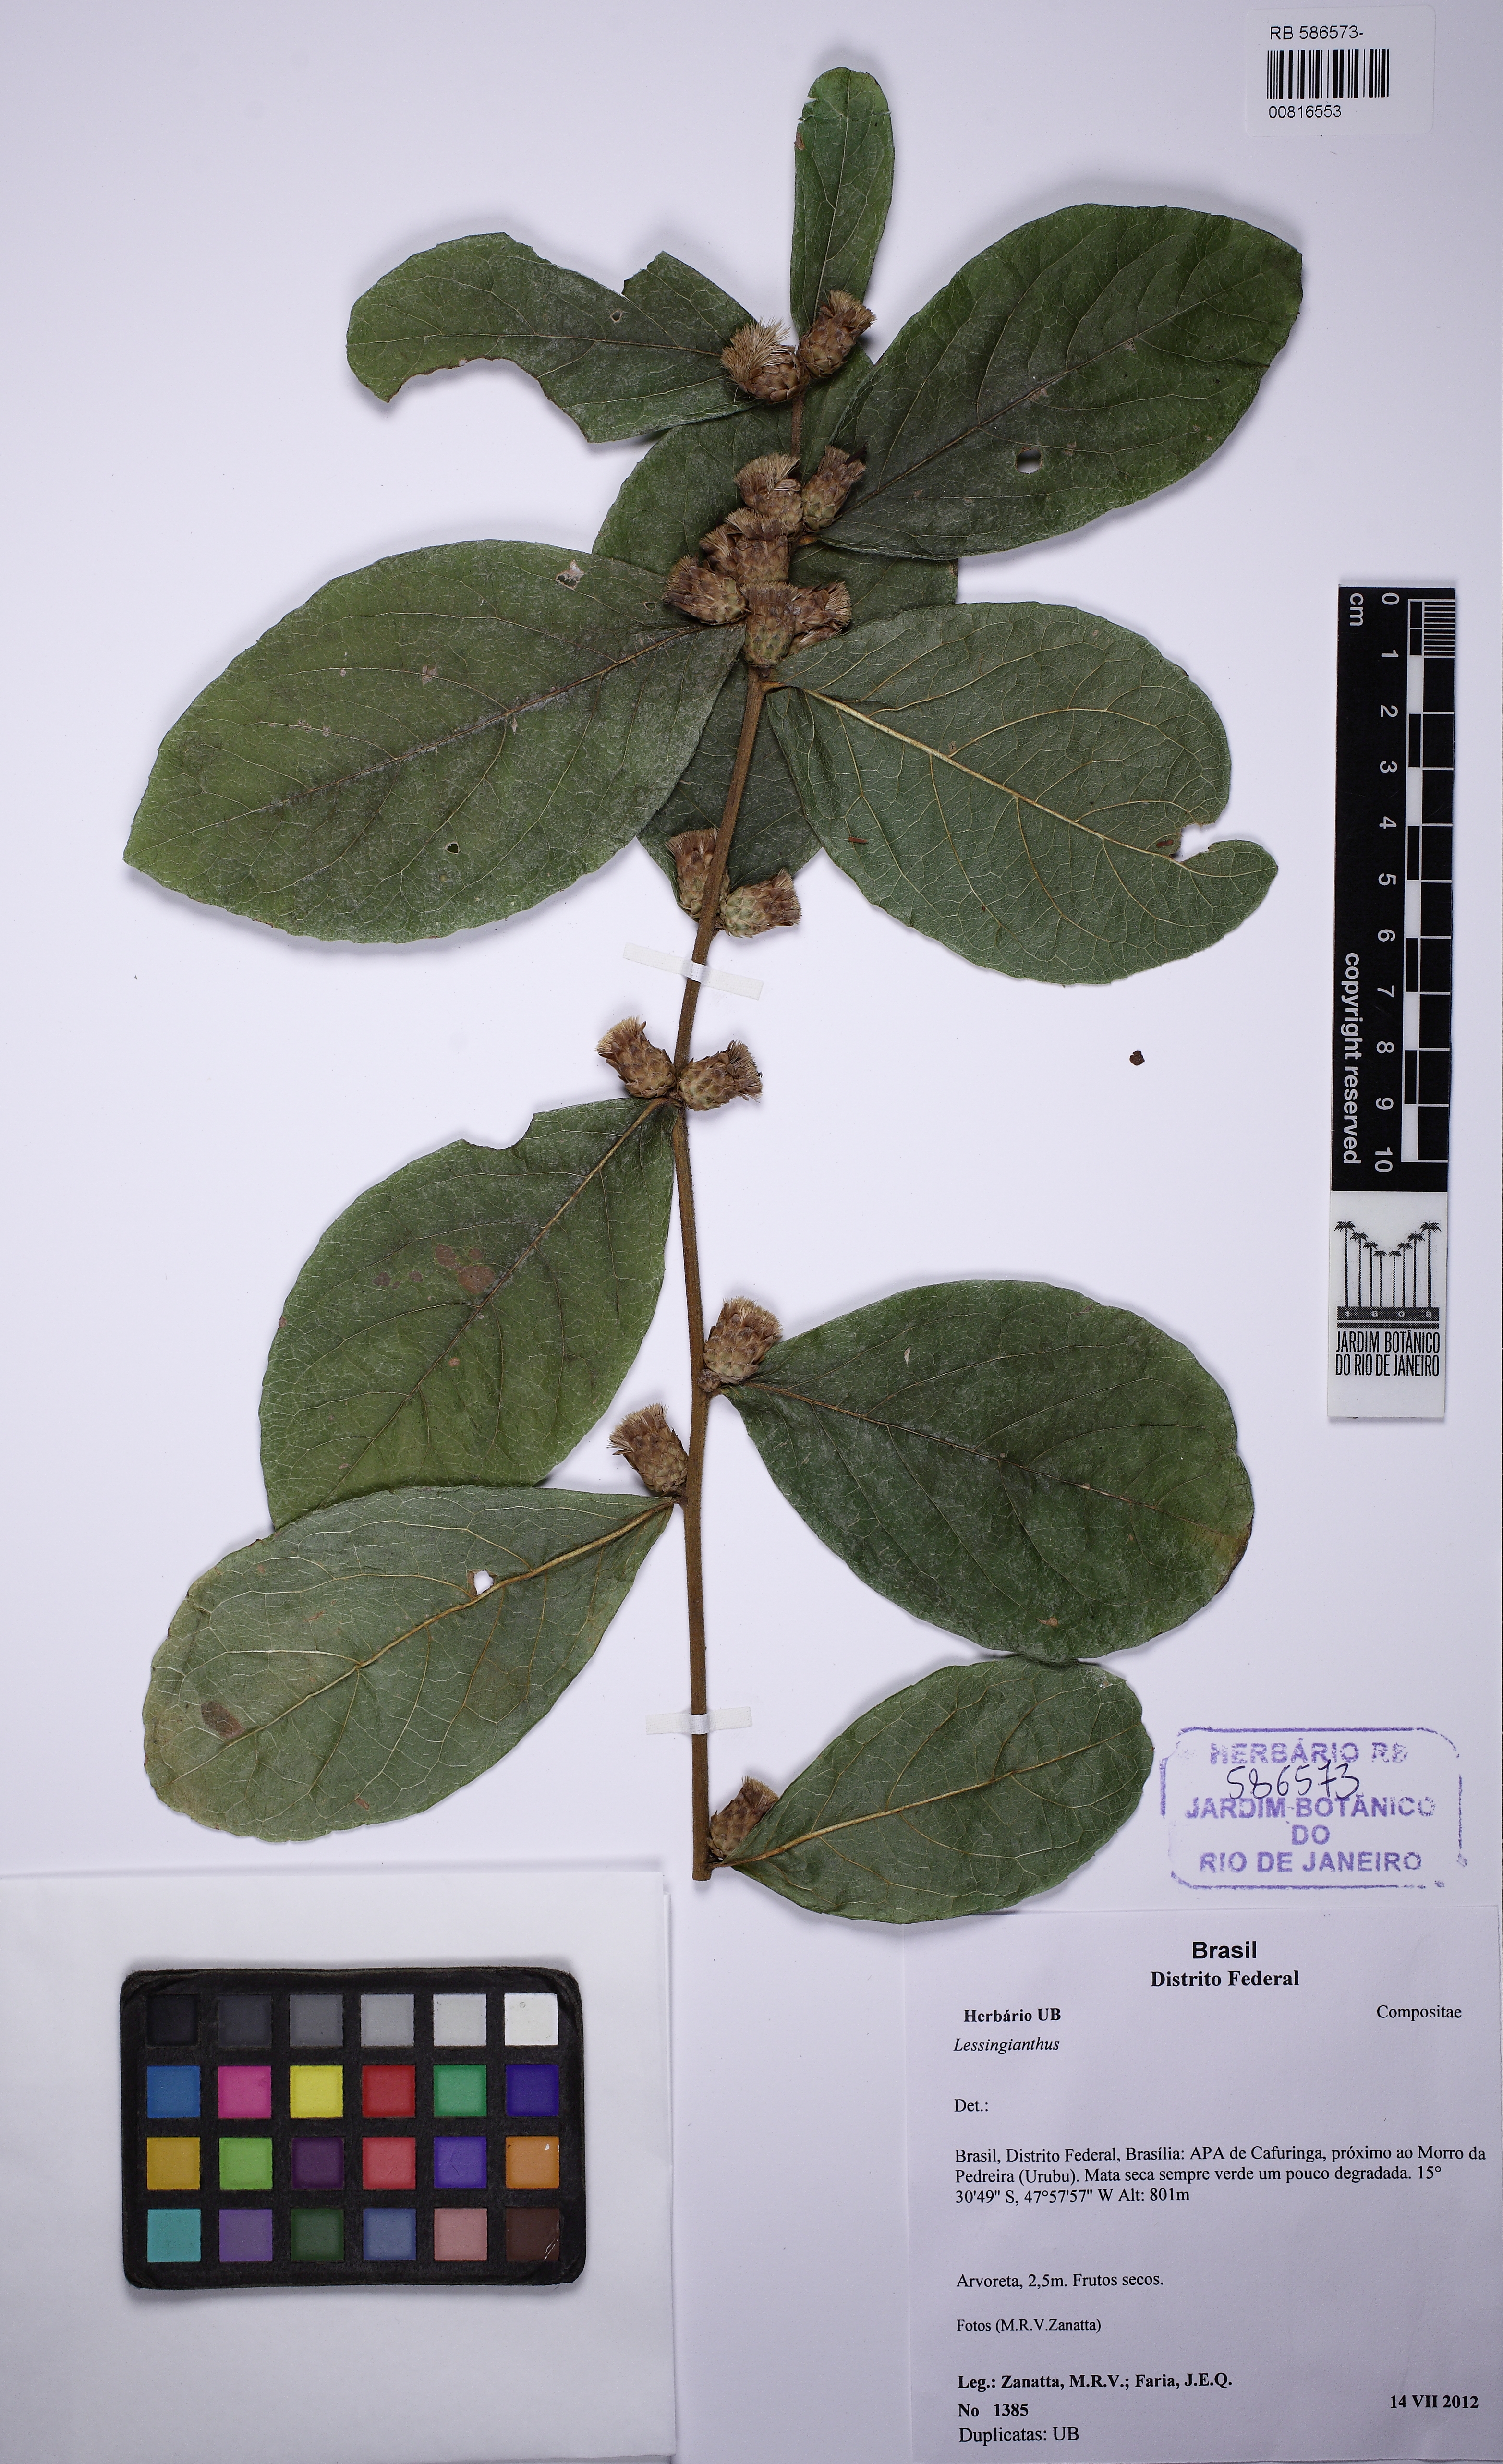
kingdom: Plantae
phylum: Tracheophyta
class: Magnoliopsida
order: Asterales
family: Asteraceae
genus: Lessingianthus
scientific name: Lessingianthus
